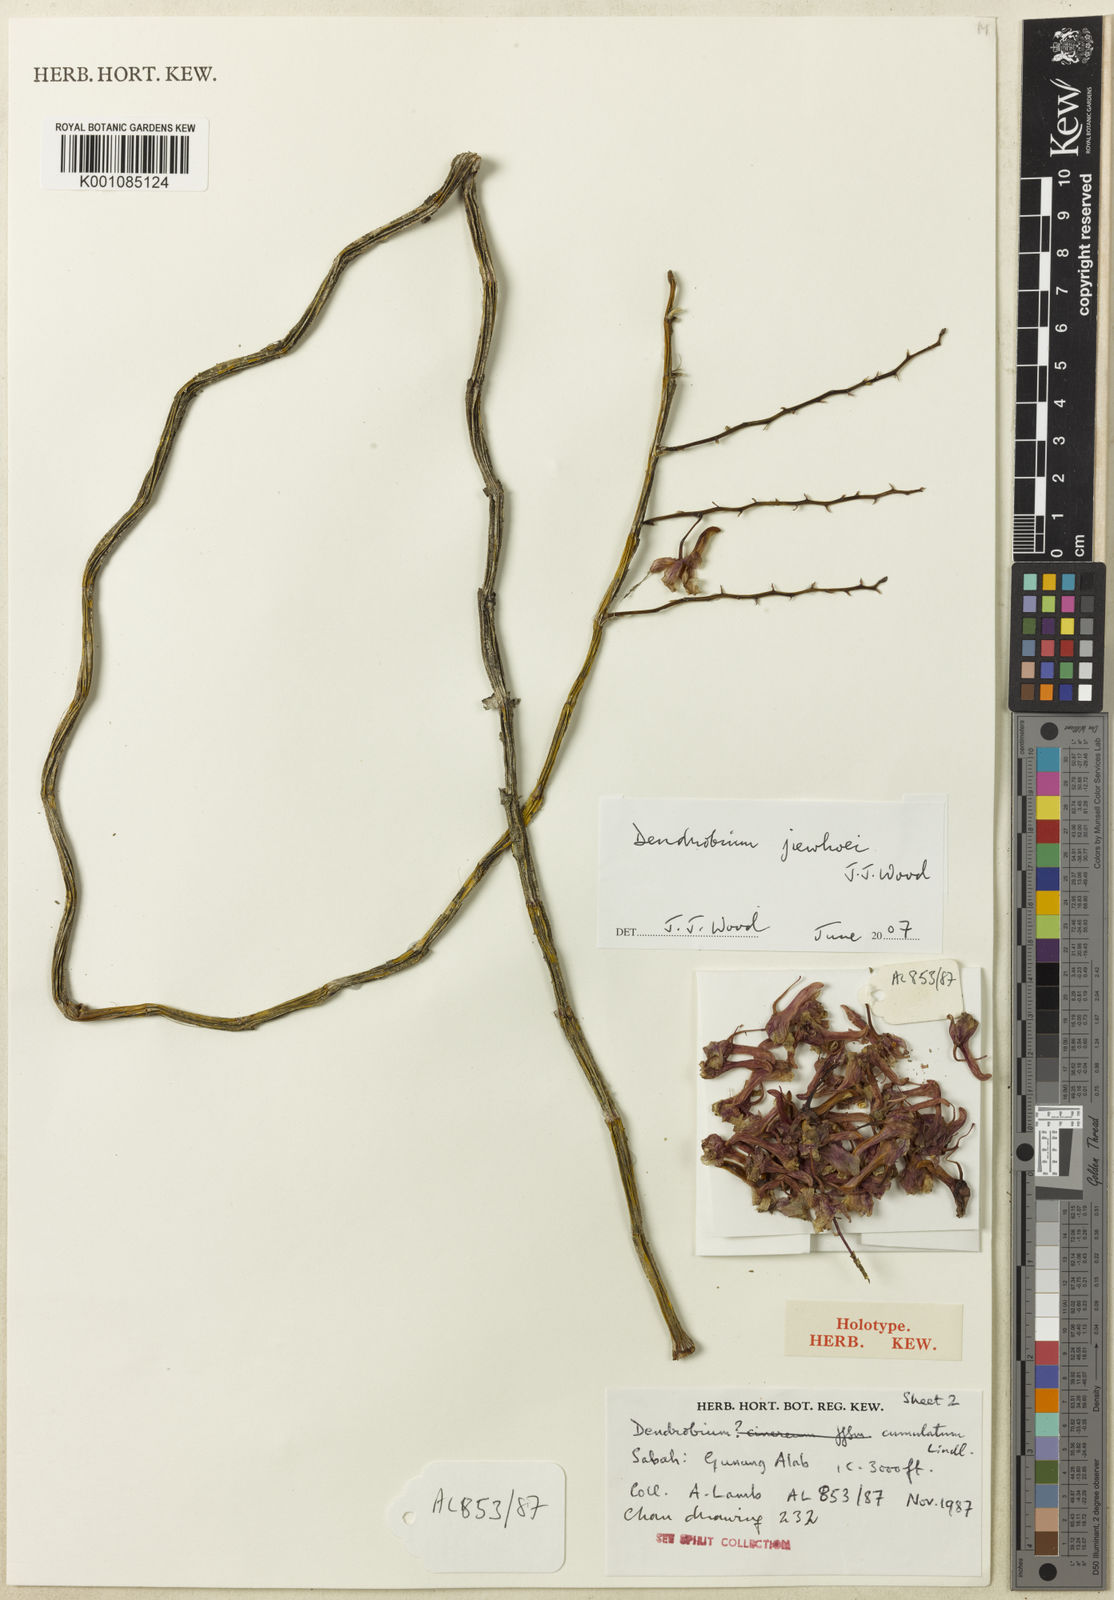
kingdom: Plantae
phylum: Tracheophyta
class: Liliopsida
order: Asparagales
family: Orchidaceae
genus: Dendrobium
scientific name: Dendrobium calcariferum
